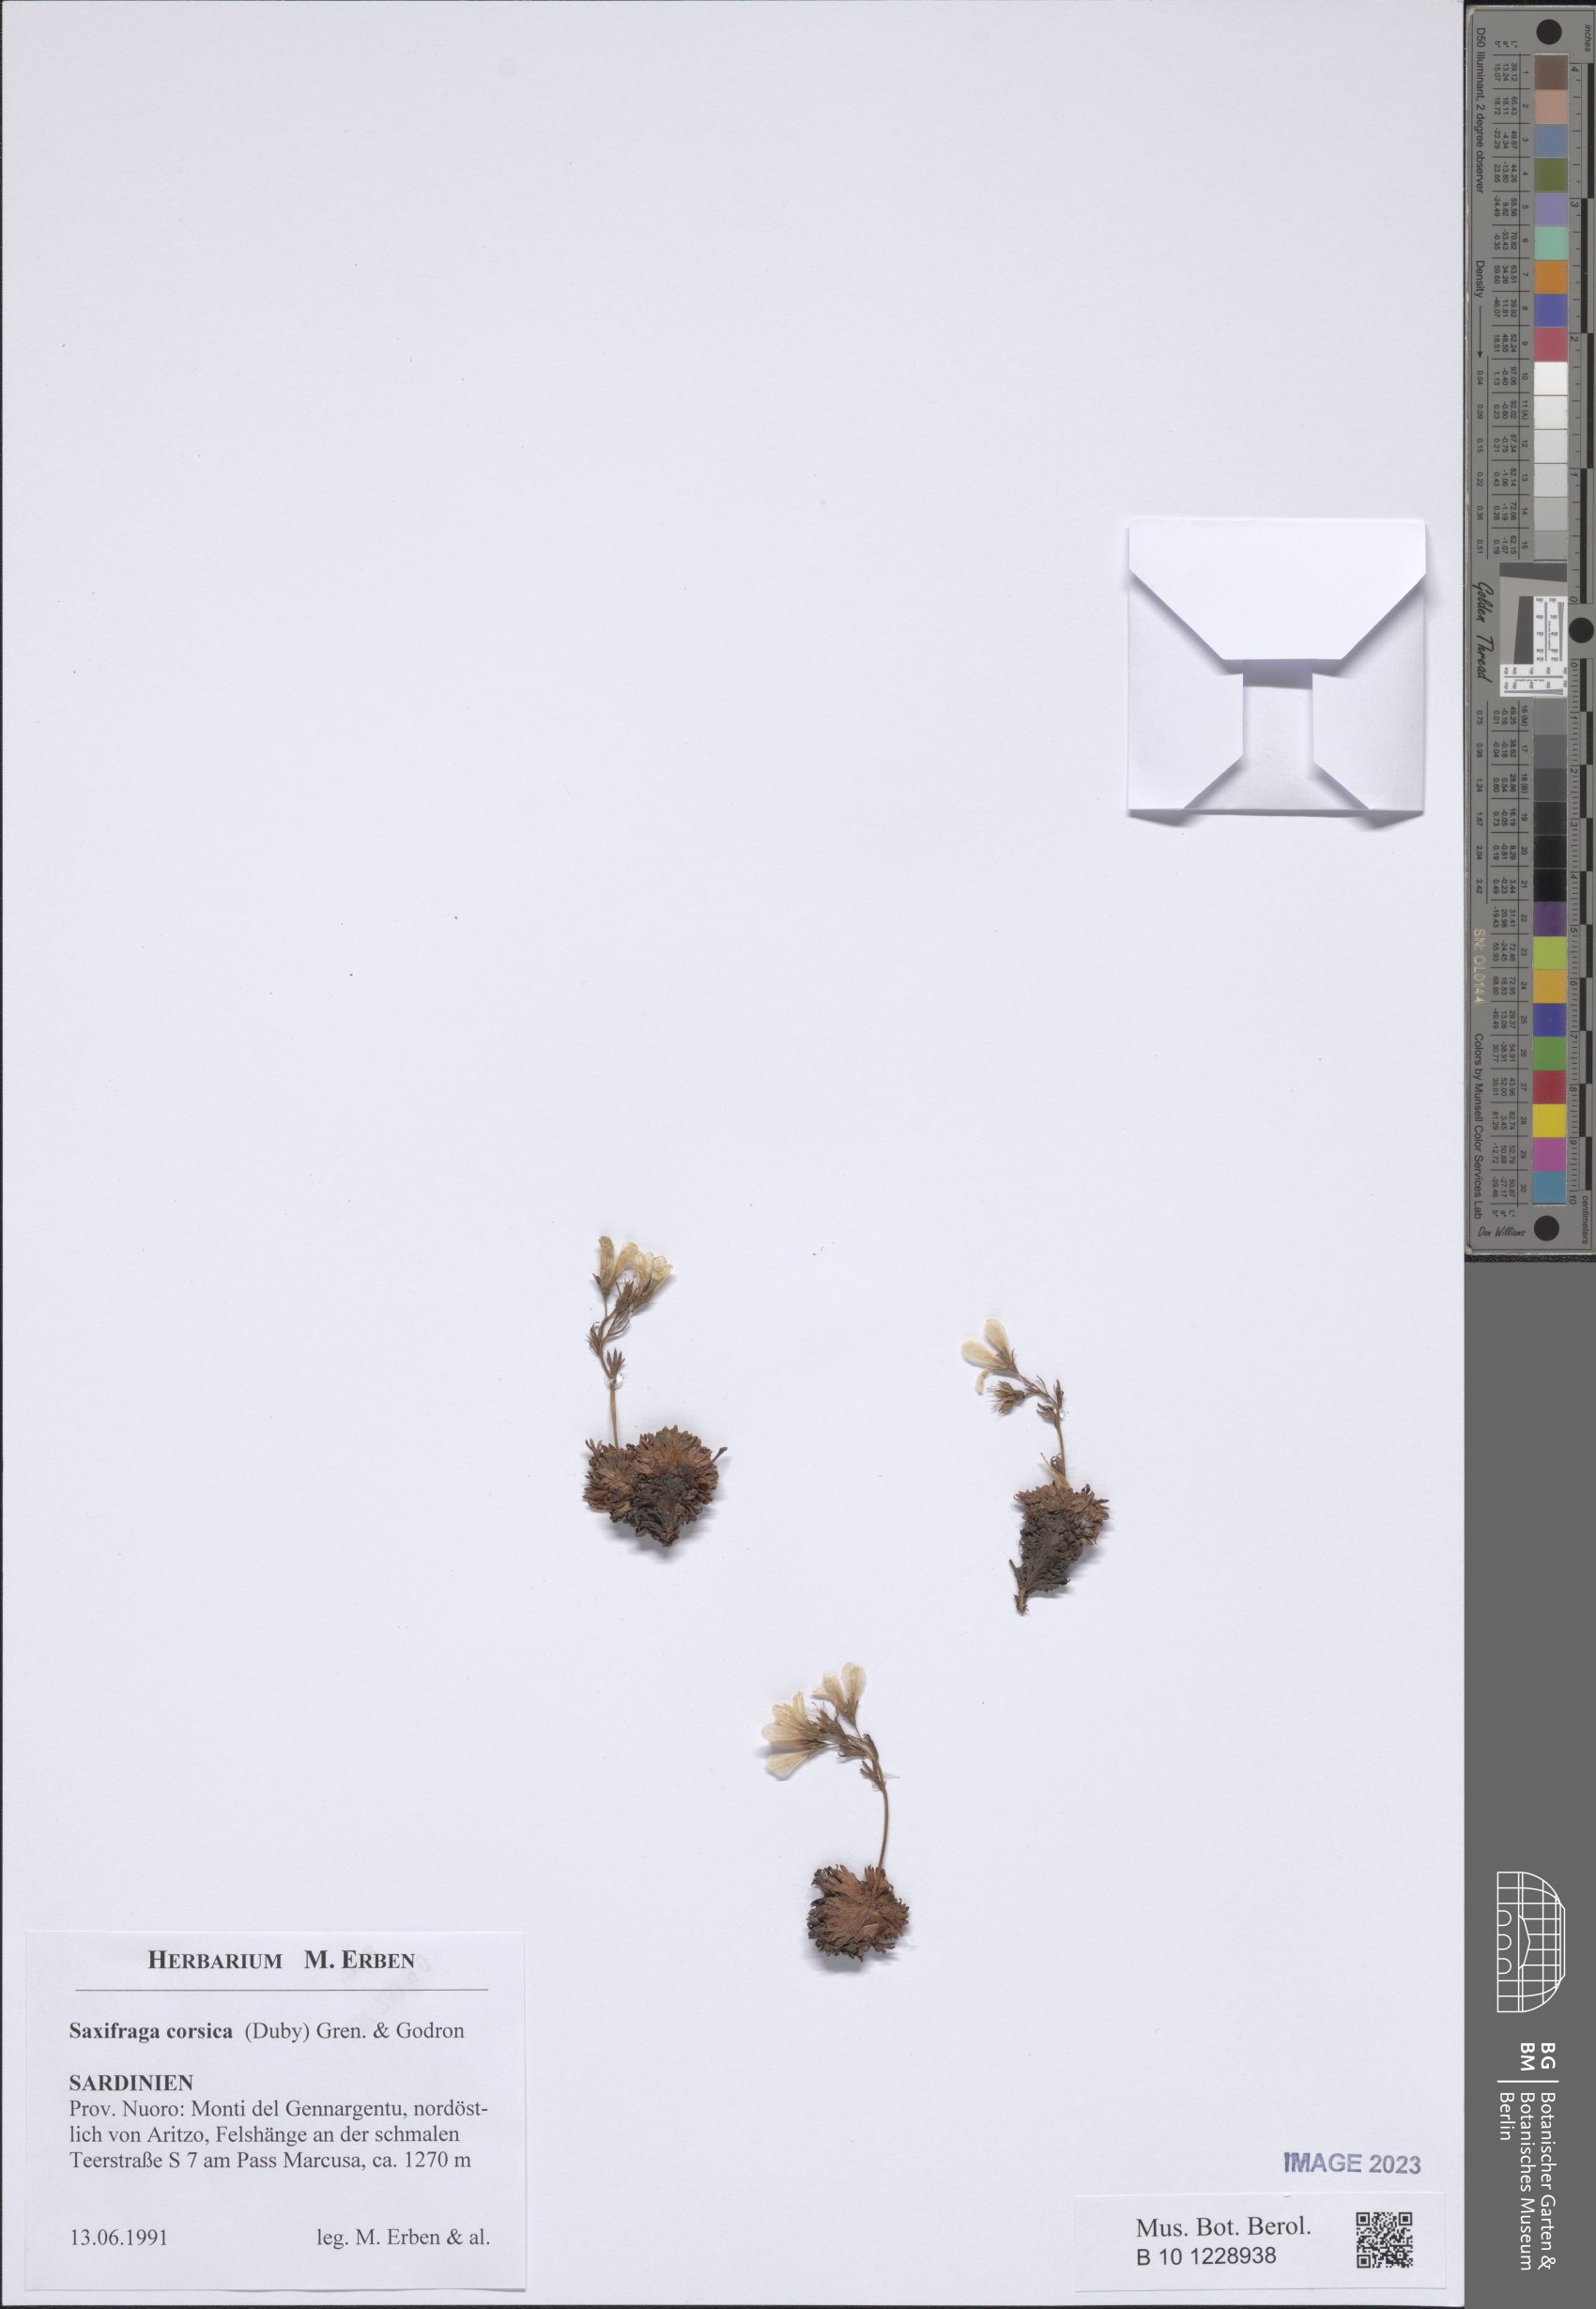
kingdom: Plantae
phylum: Tracheophyta
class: Magnoliopsida
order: Saxifragales
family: Saxifragaceae
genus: Saxifraga
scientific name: Saxifraga corsica
